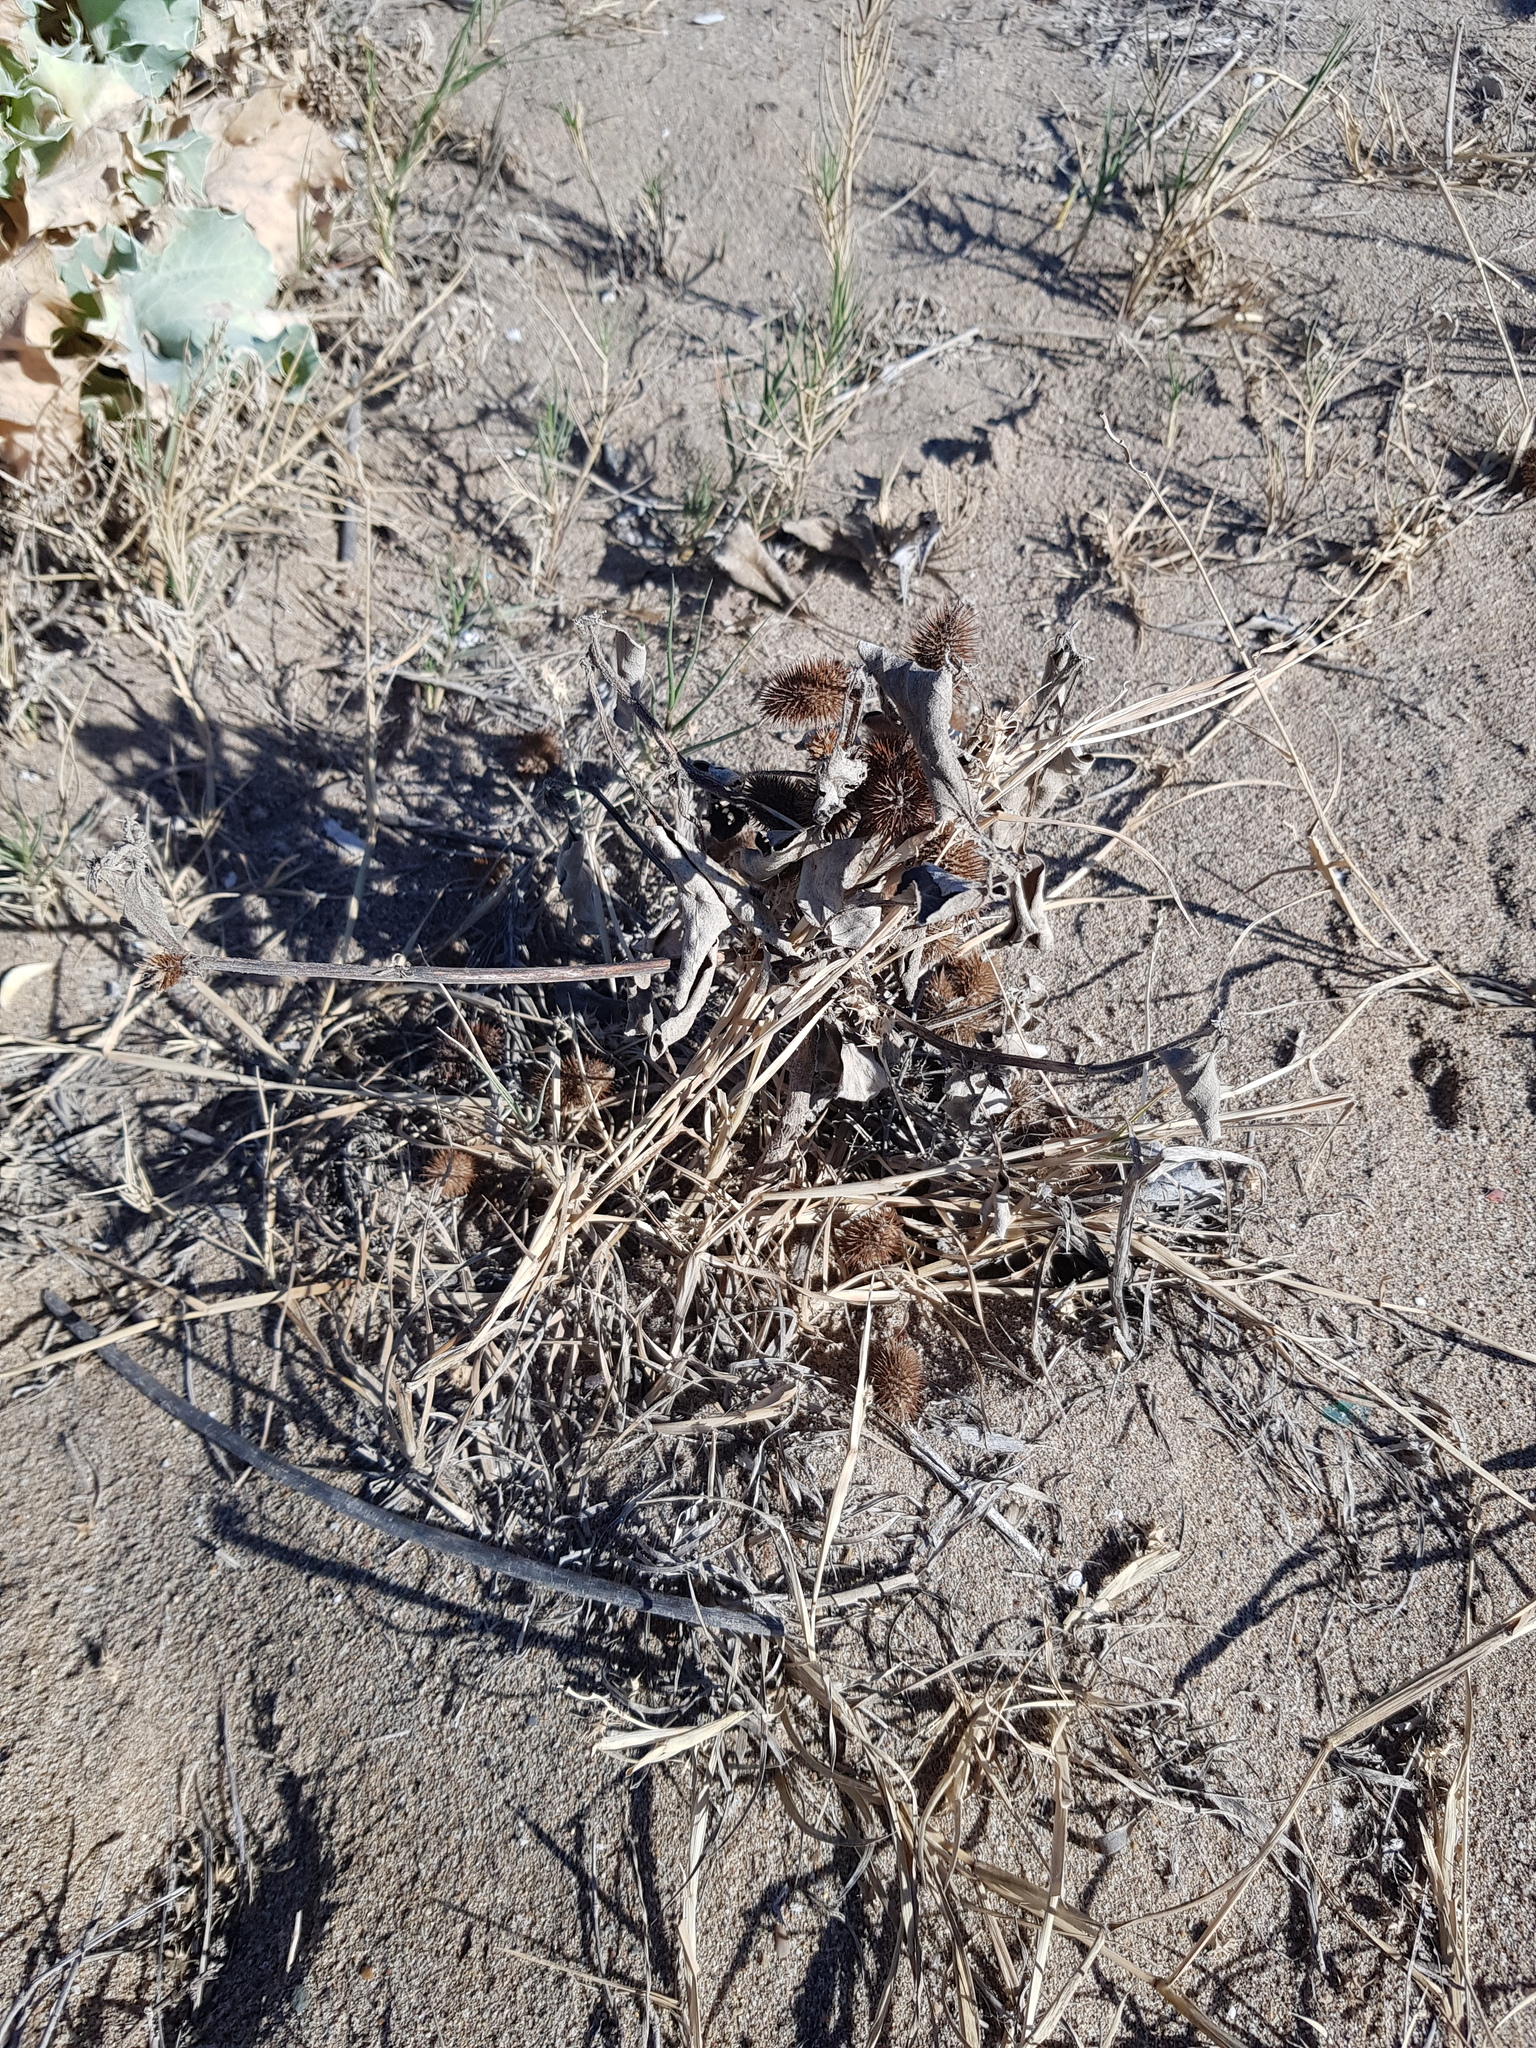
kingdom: Plantae
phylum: Tracheophyta
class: Magnoliopsida
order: Asterales
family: Asteraceae
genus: Xanthium
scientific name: Xanthium orientale
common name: Californian burr
